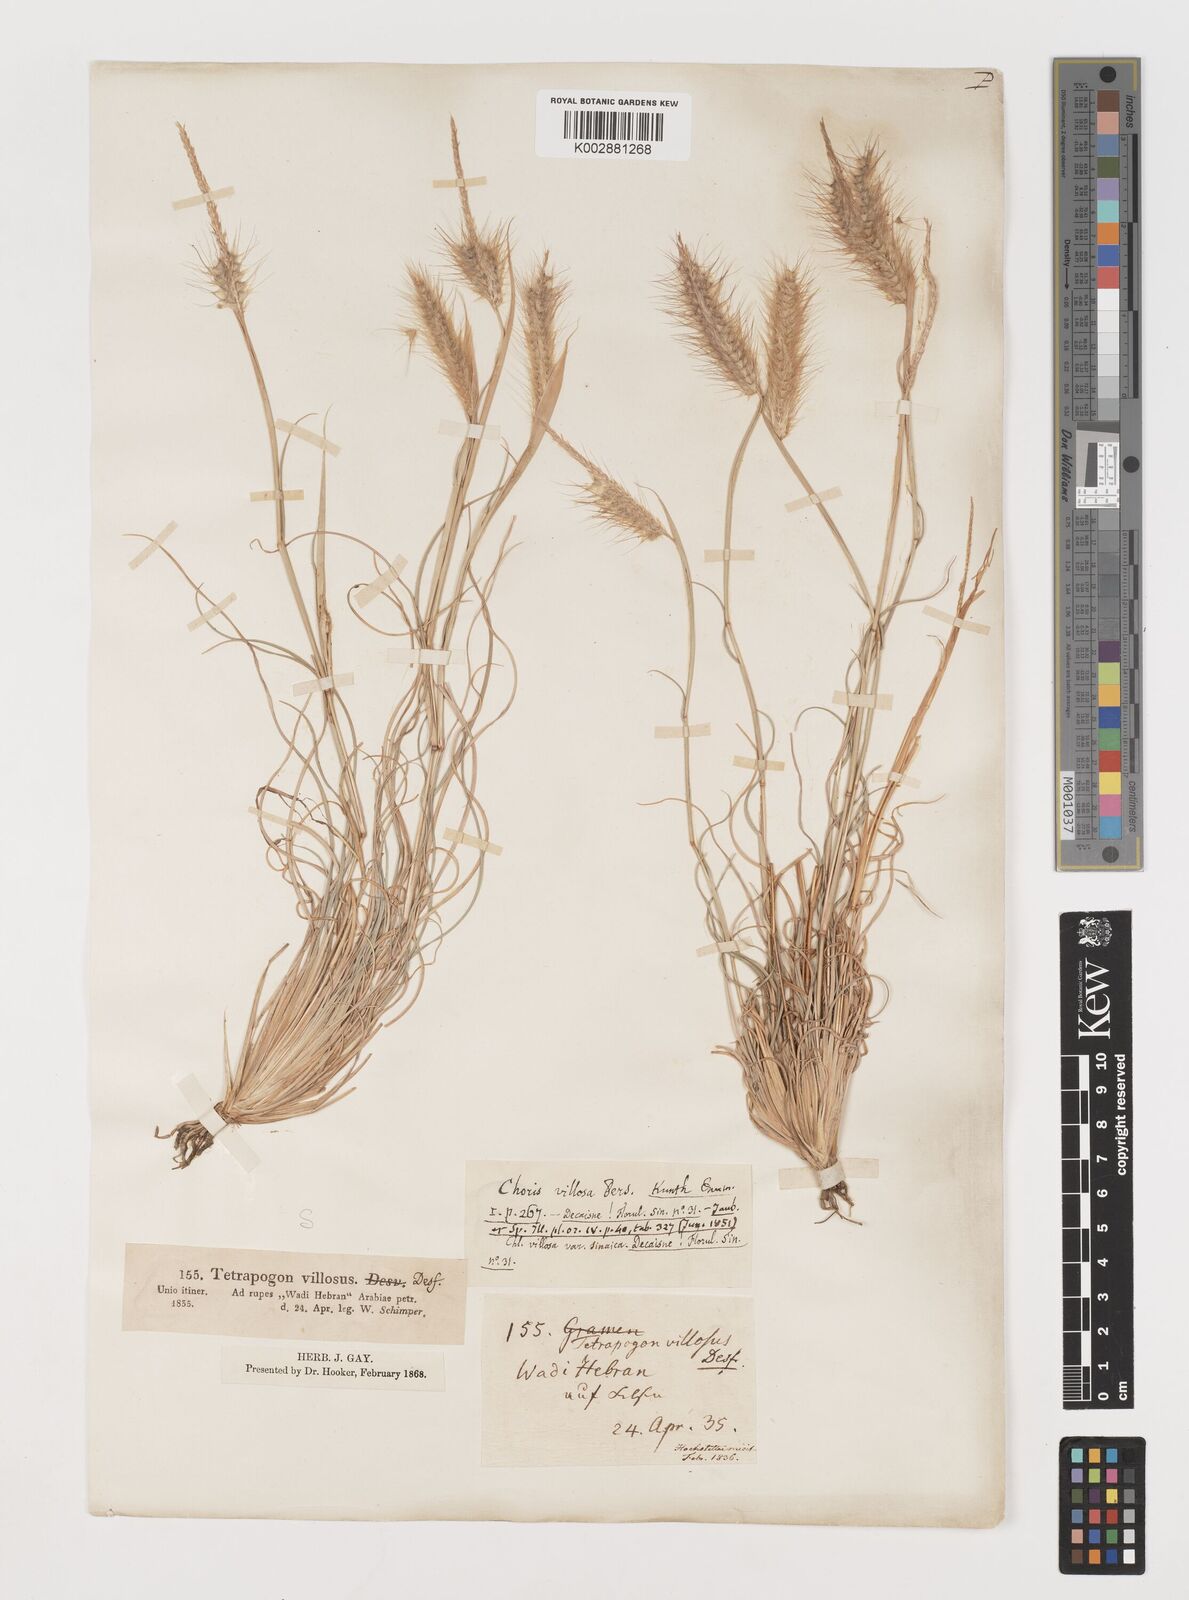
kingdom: Plantae
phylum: Tracheophyta
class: Liliopsida
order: Poales
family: Poaceae
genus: Tetrapogon
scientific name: Tetrapogon villosus
